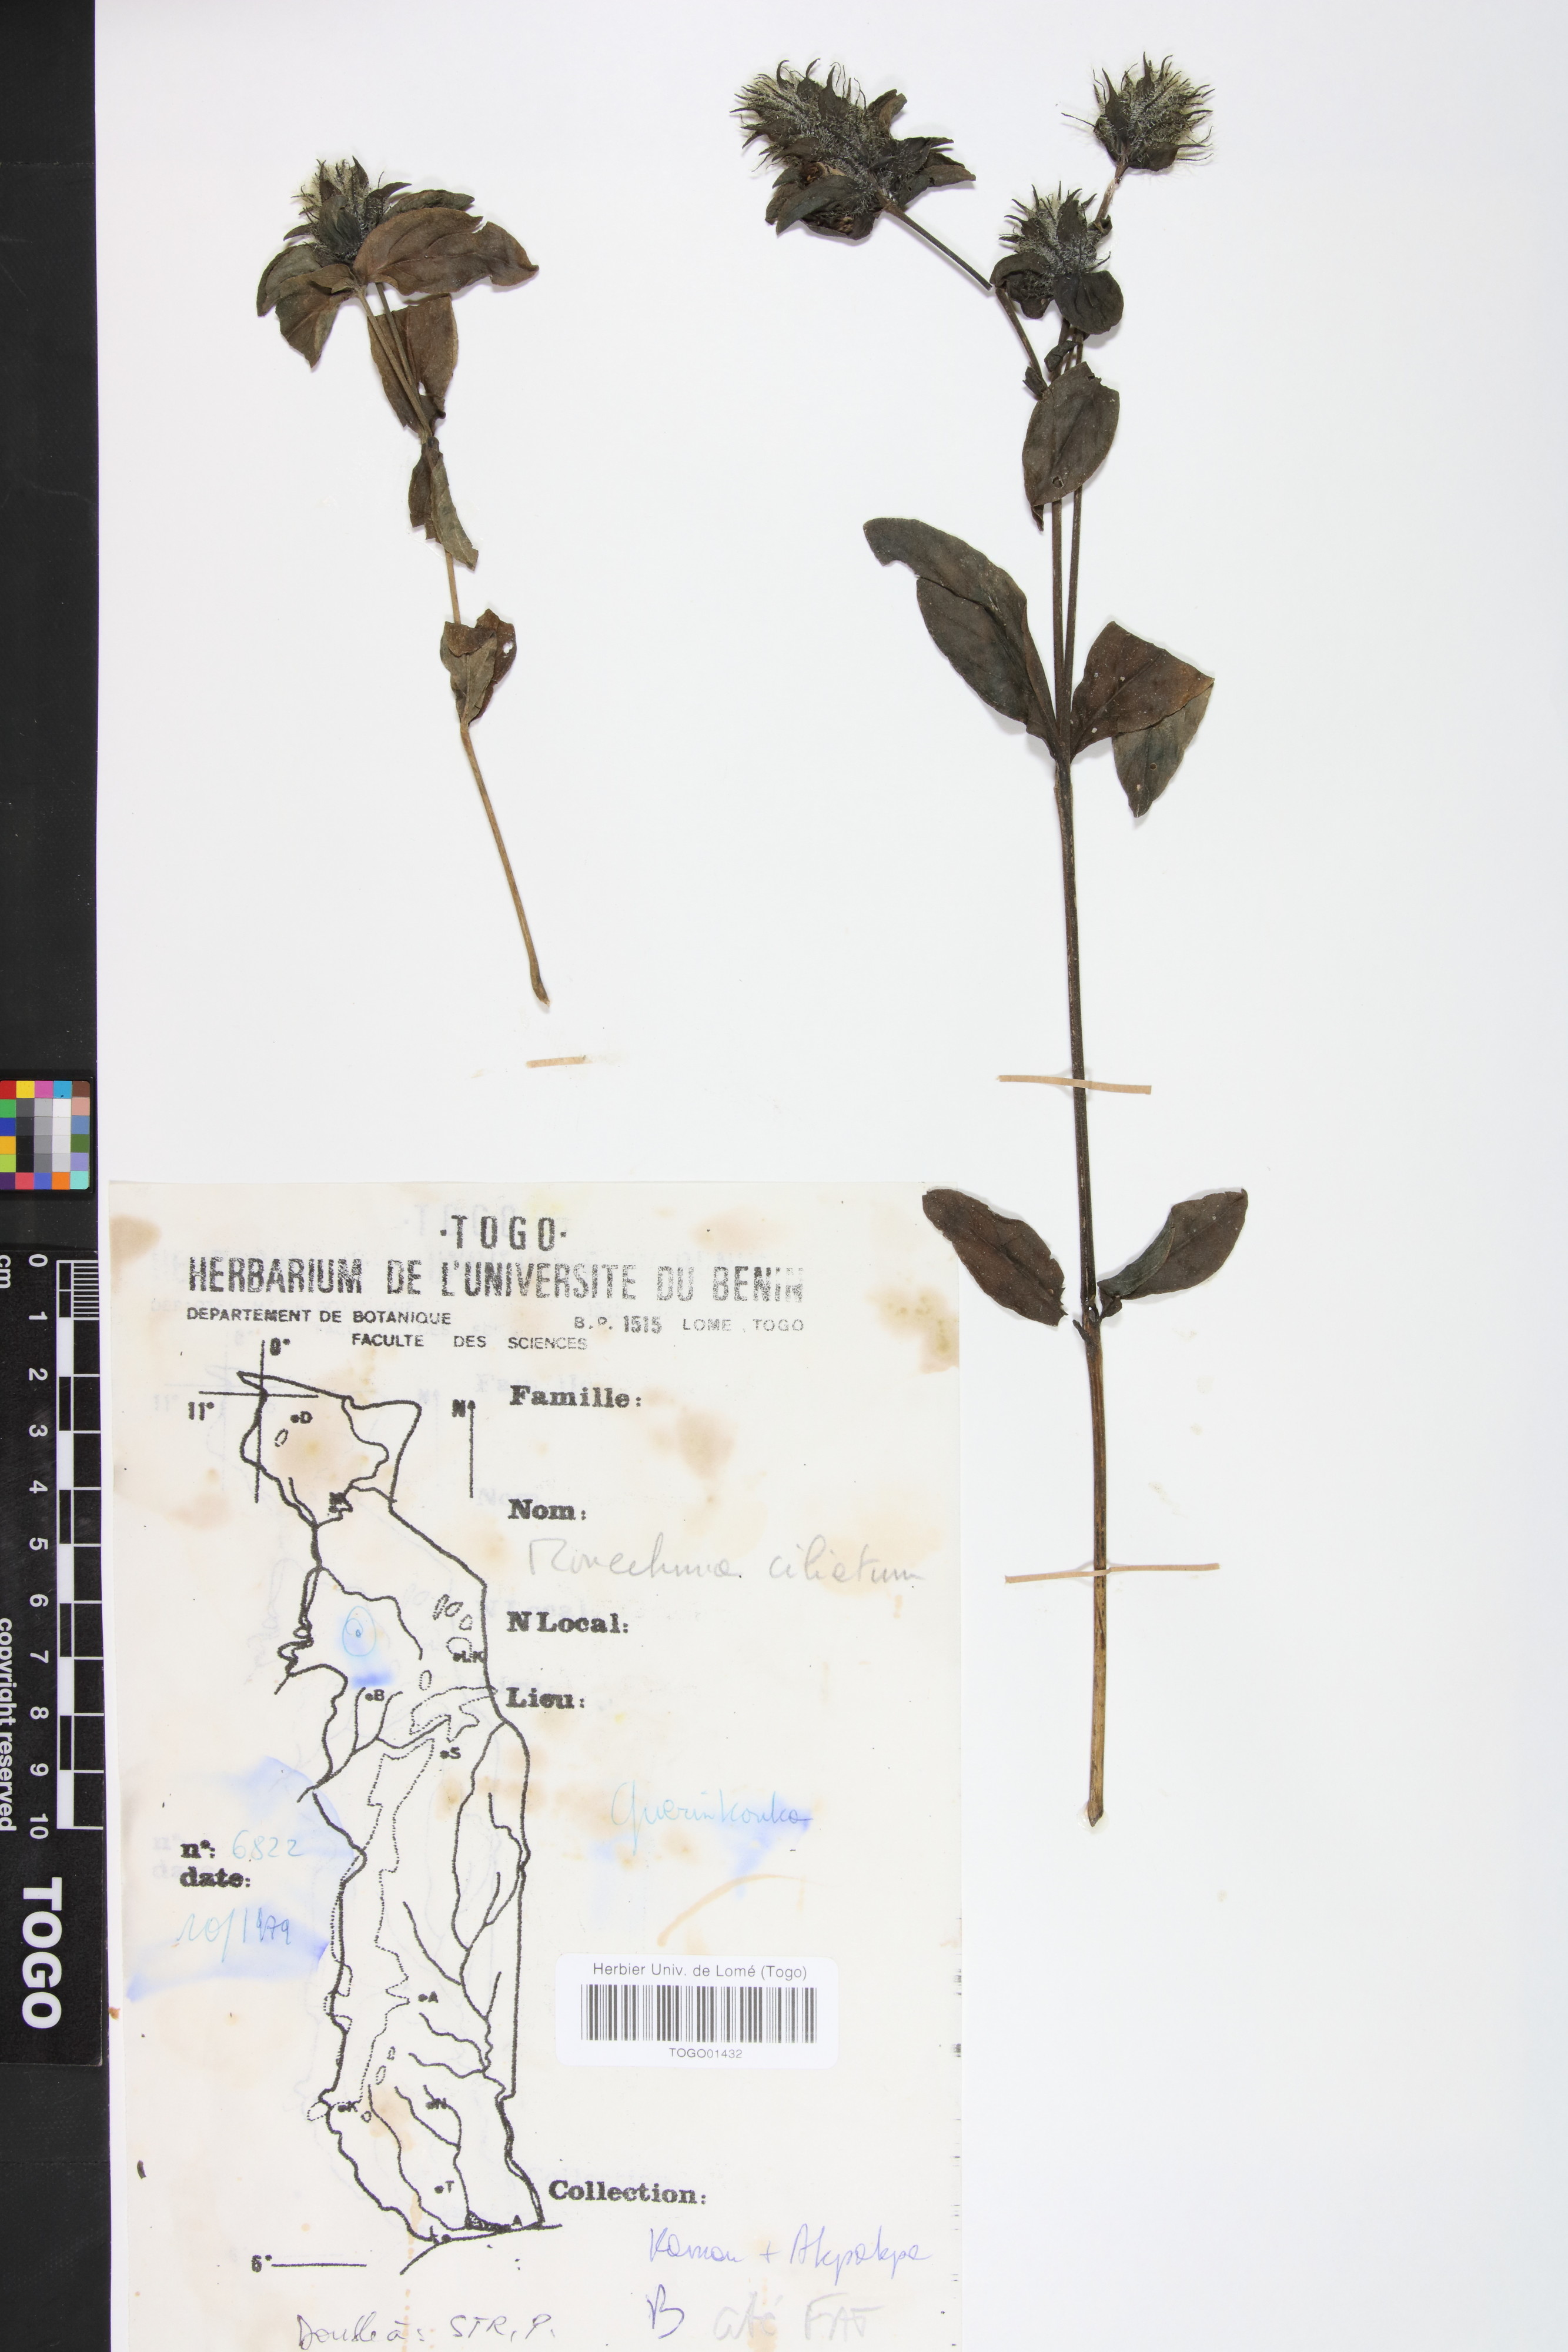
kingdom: Plantae
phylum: Tracheophyta
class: Magnoliopsida
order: Lamiales
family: Acanthaceae
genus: Pogonospermum
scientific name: Pogonospermum ciliare
